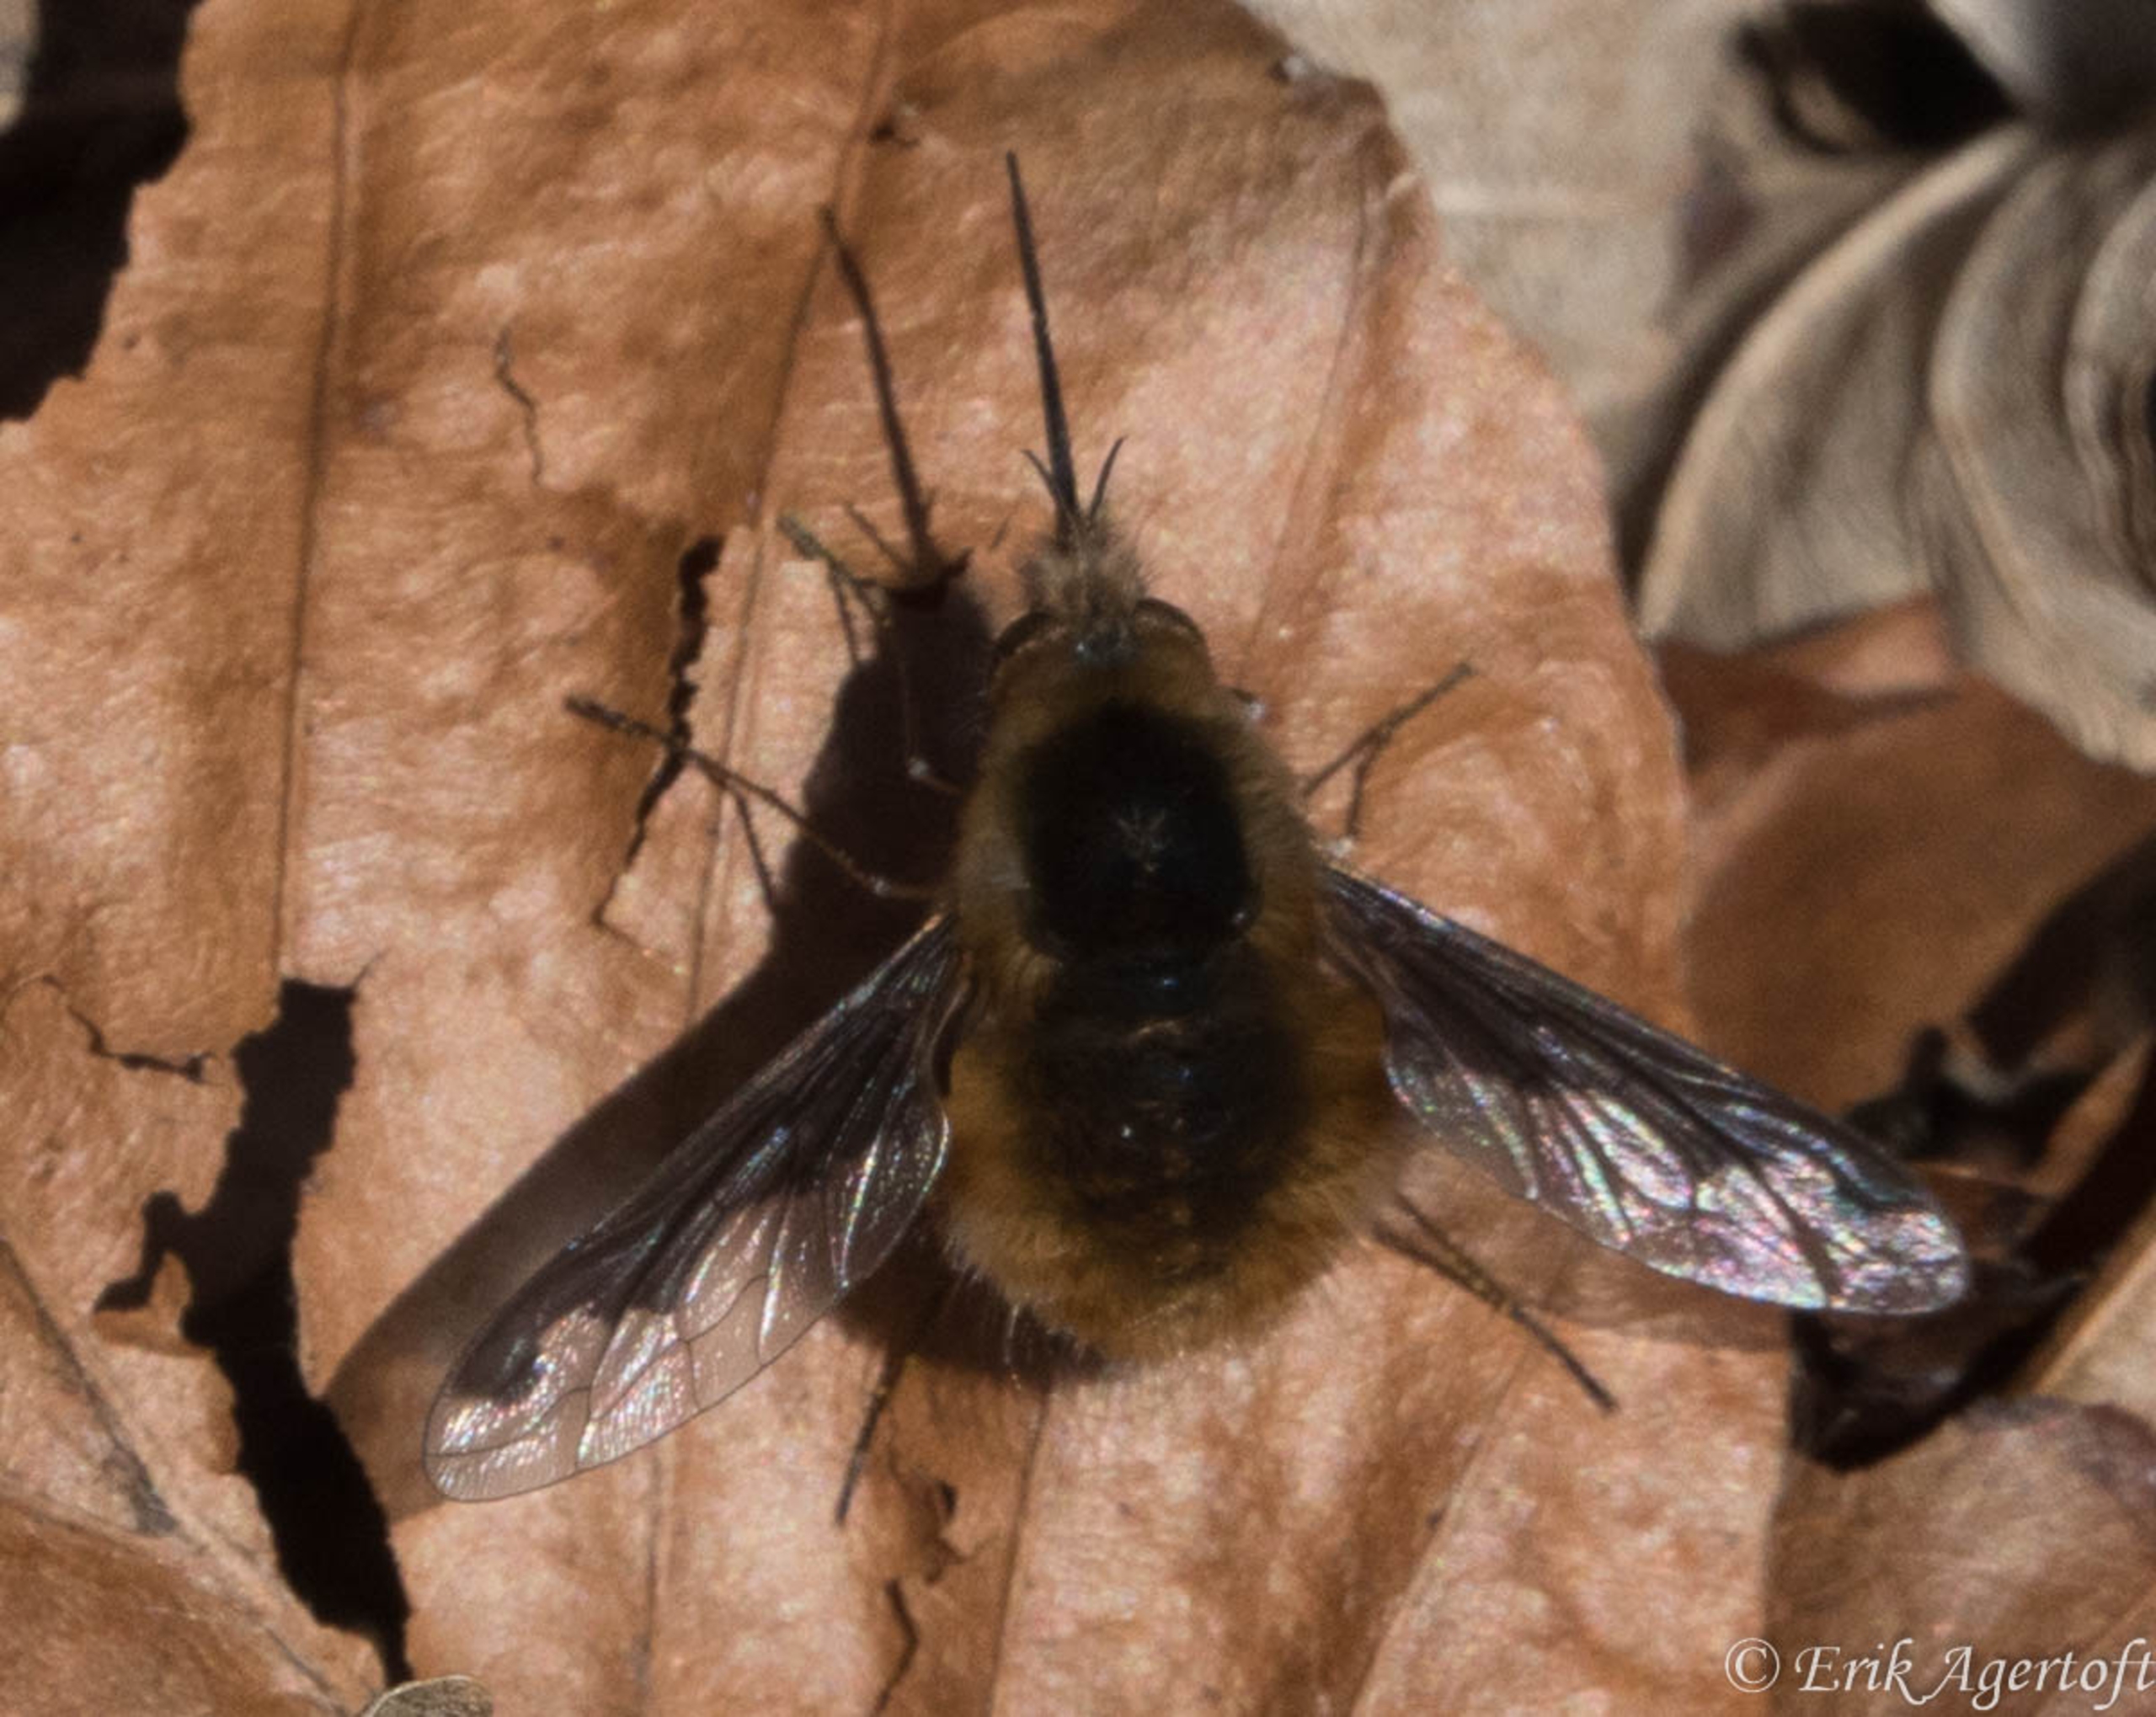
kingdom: Animalia
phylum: Arthropoda
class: Insecta
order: Diptera
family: Bombyliidae
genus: Bombylius
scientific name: Bombylius major
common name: Stor humleflue
